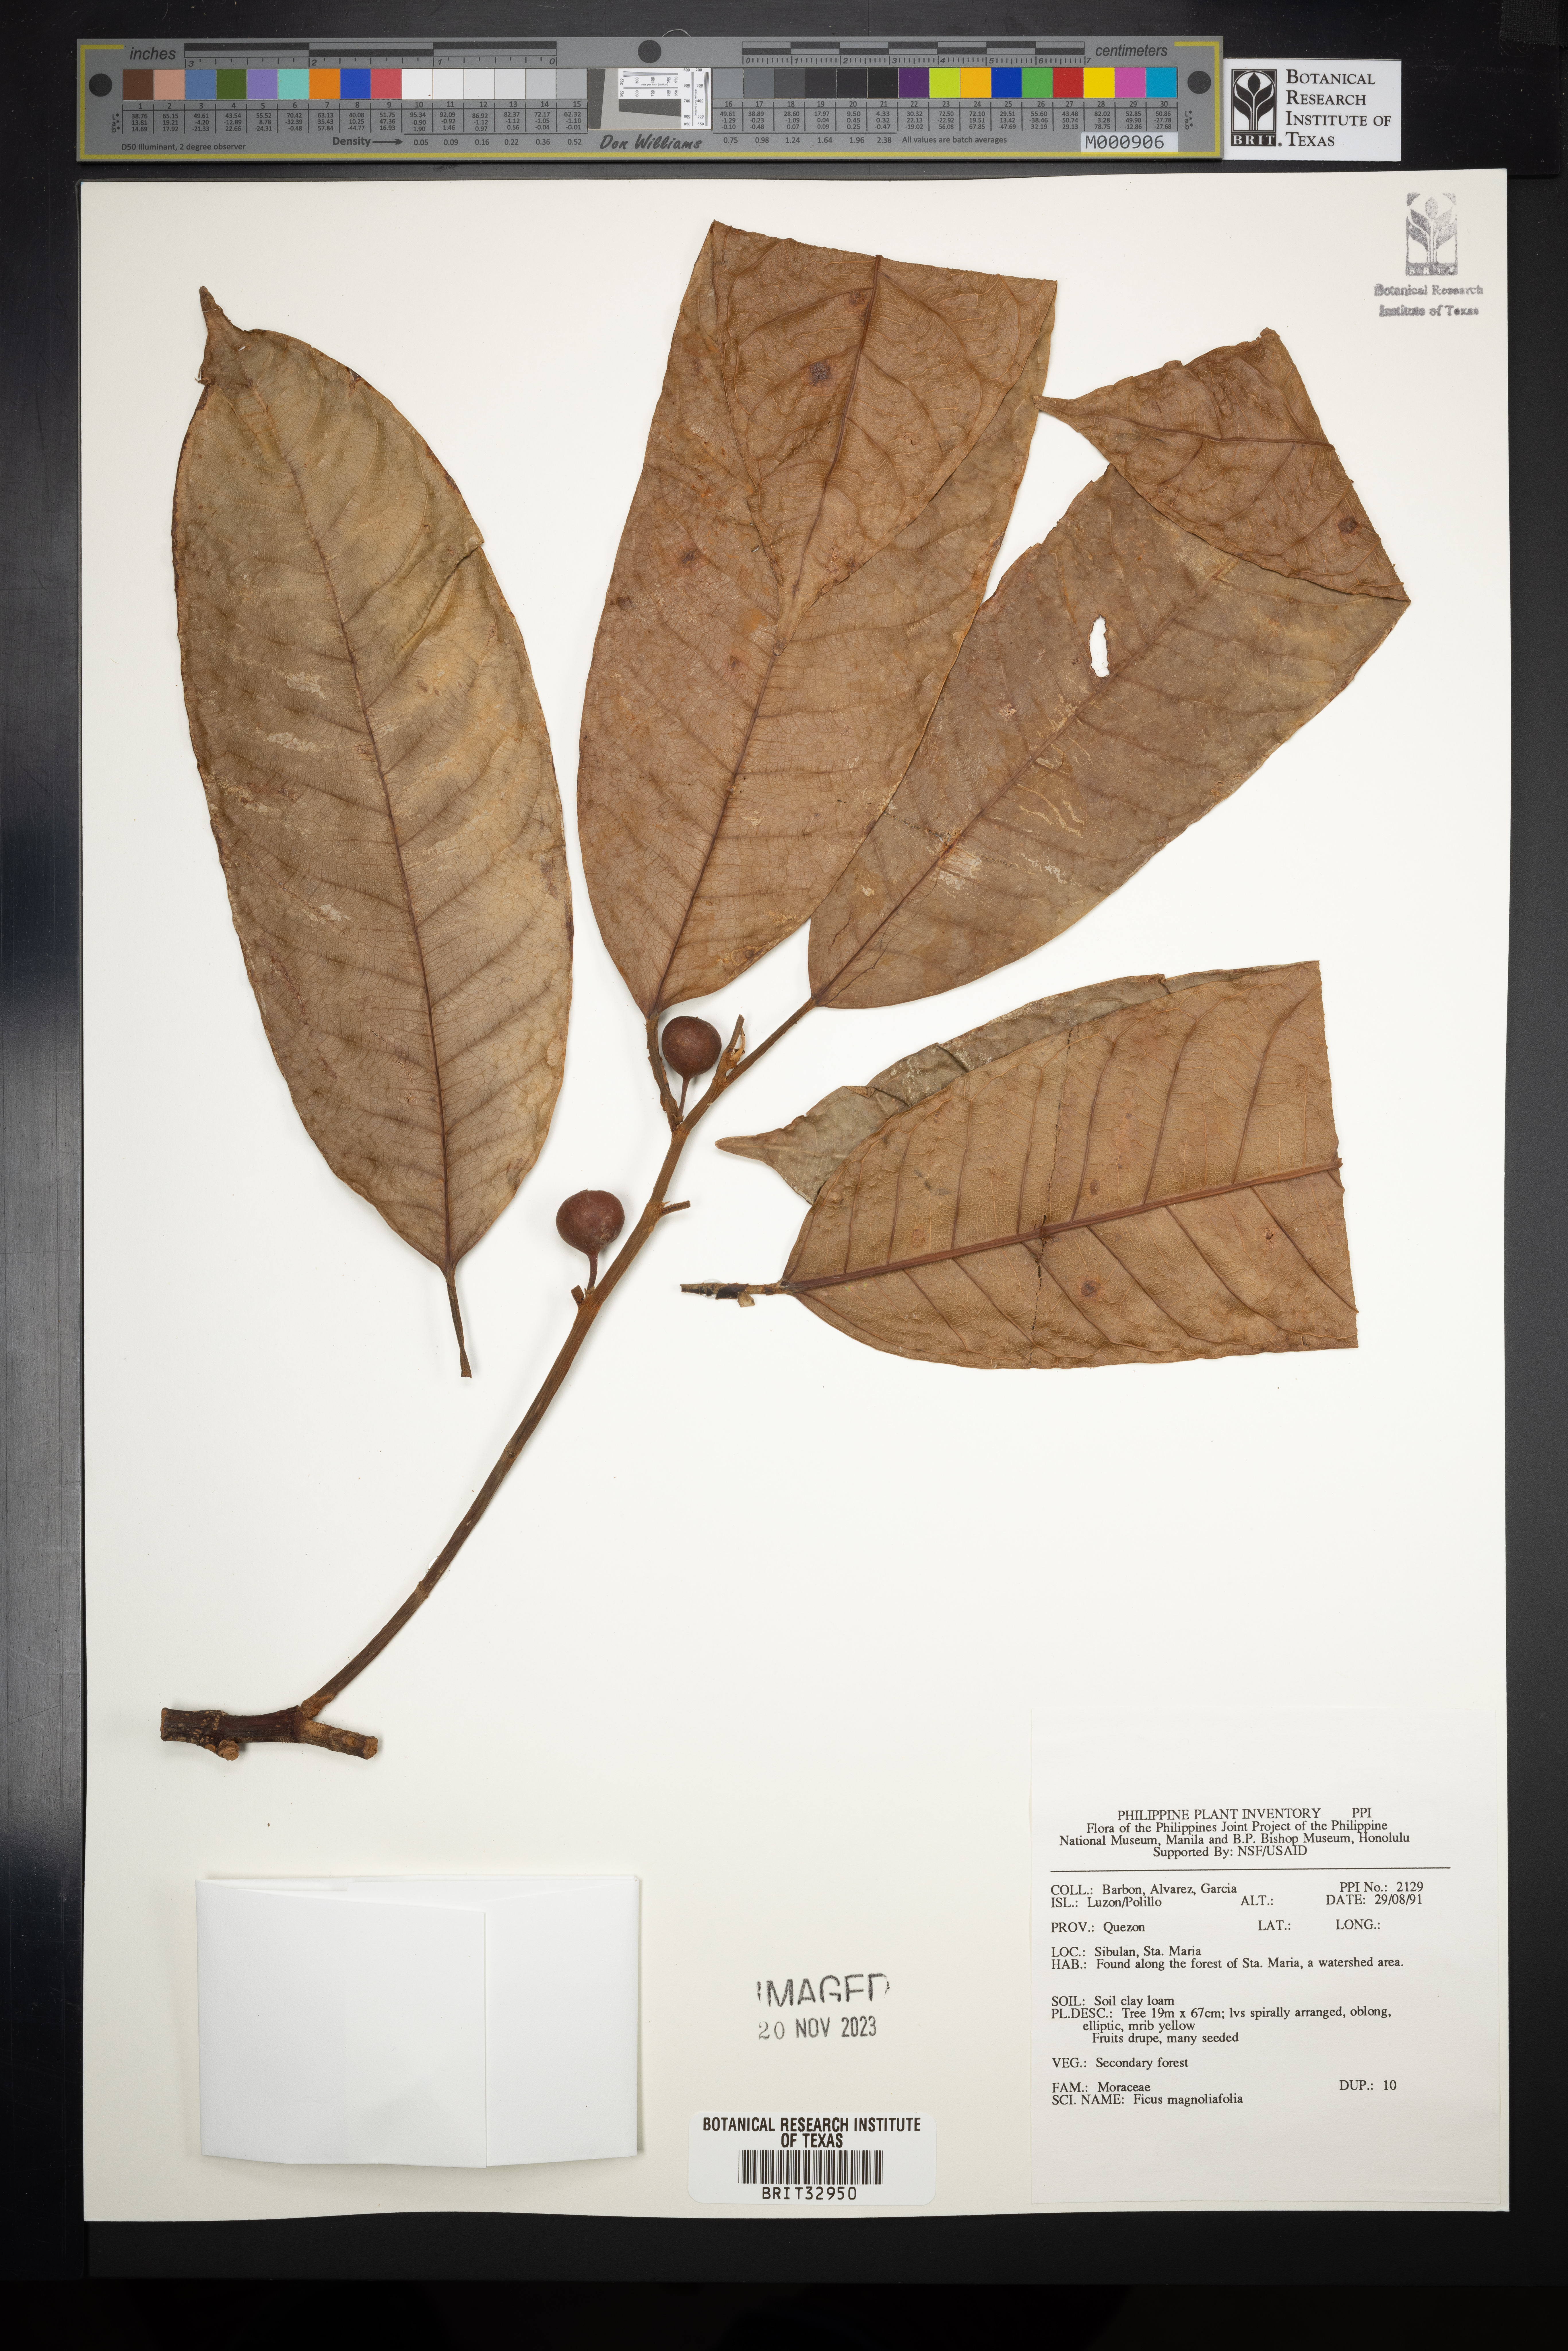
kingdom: Plantae
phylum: Tracheophyta
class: Magnoliopsida
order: Rosales
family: Moraceae
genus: Ficus
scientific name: Ficus magnoliifolia
